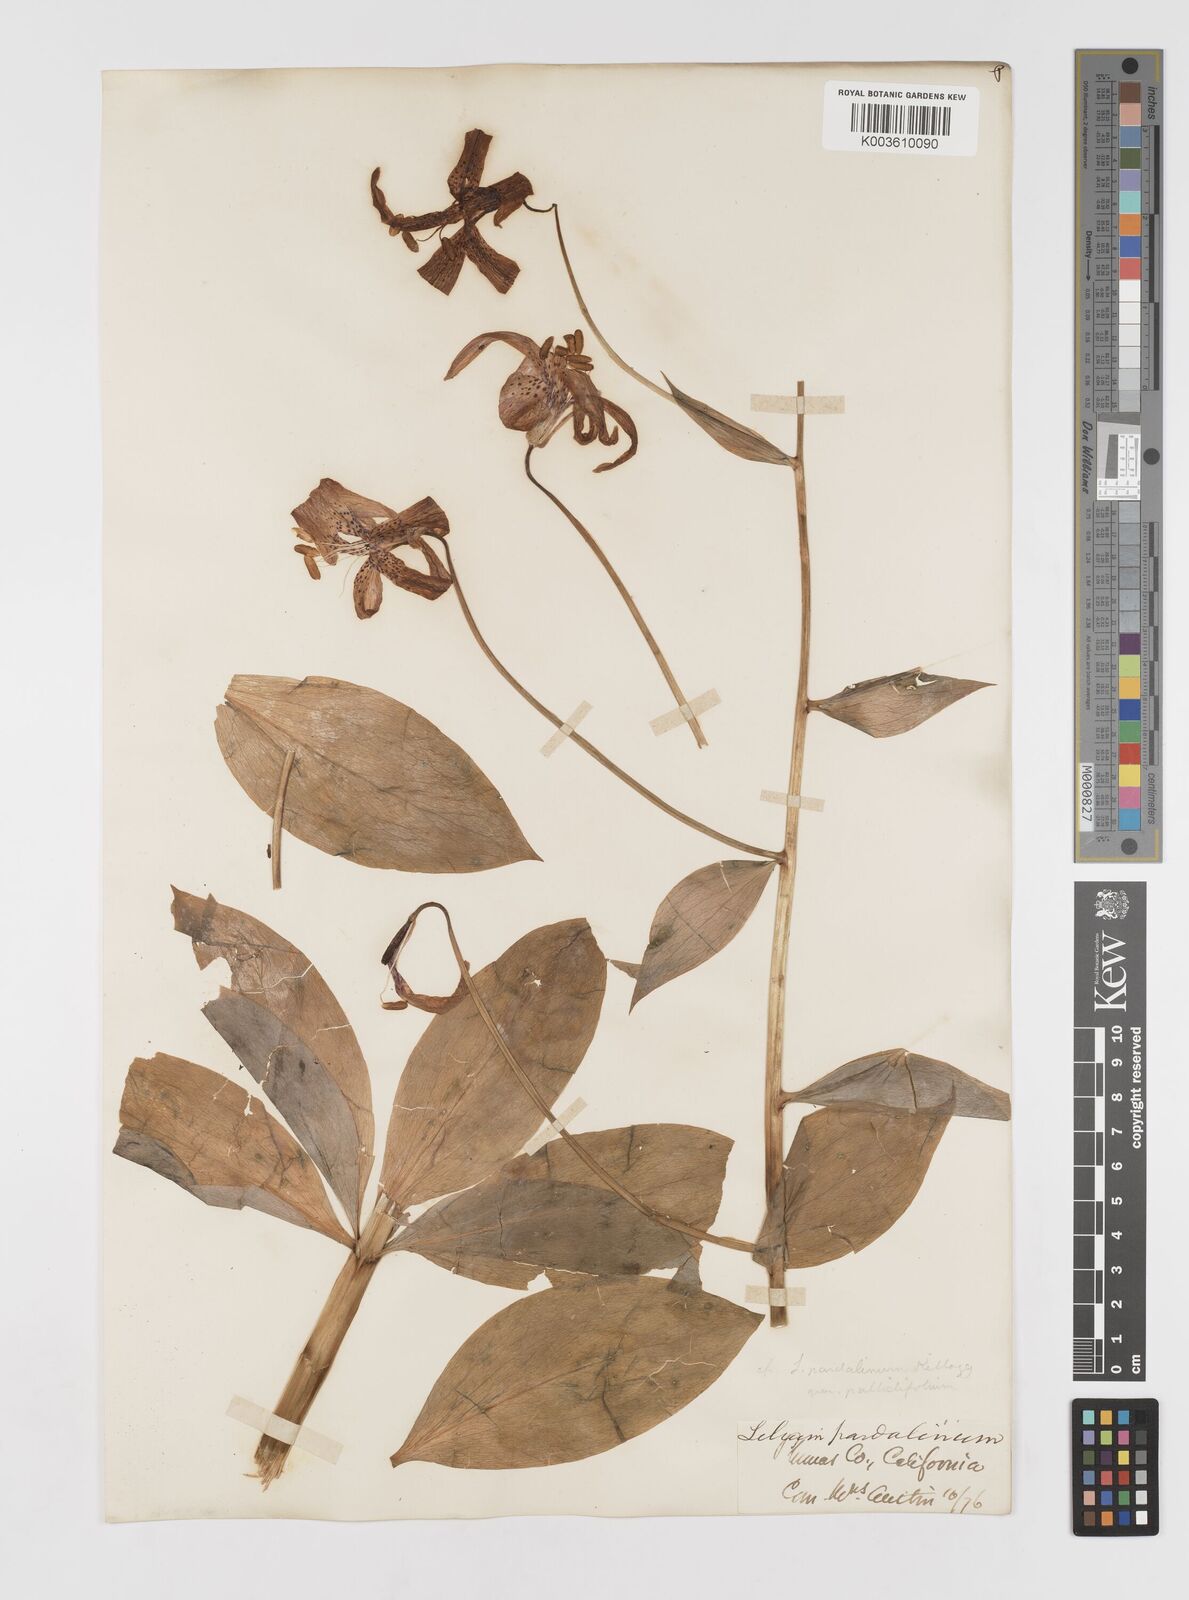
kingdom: Plantae
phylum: Tracheophyta
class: Liliopsida
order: Liliales
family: Liliaceae
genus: Lilium
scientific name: Lilium kelleyanum
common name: Kelley's lily
